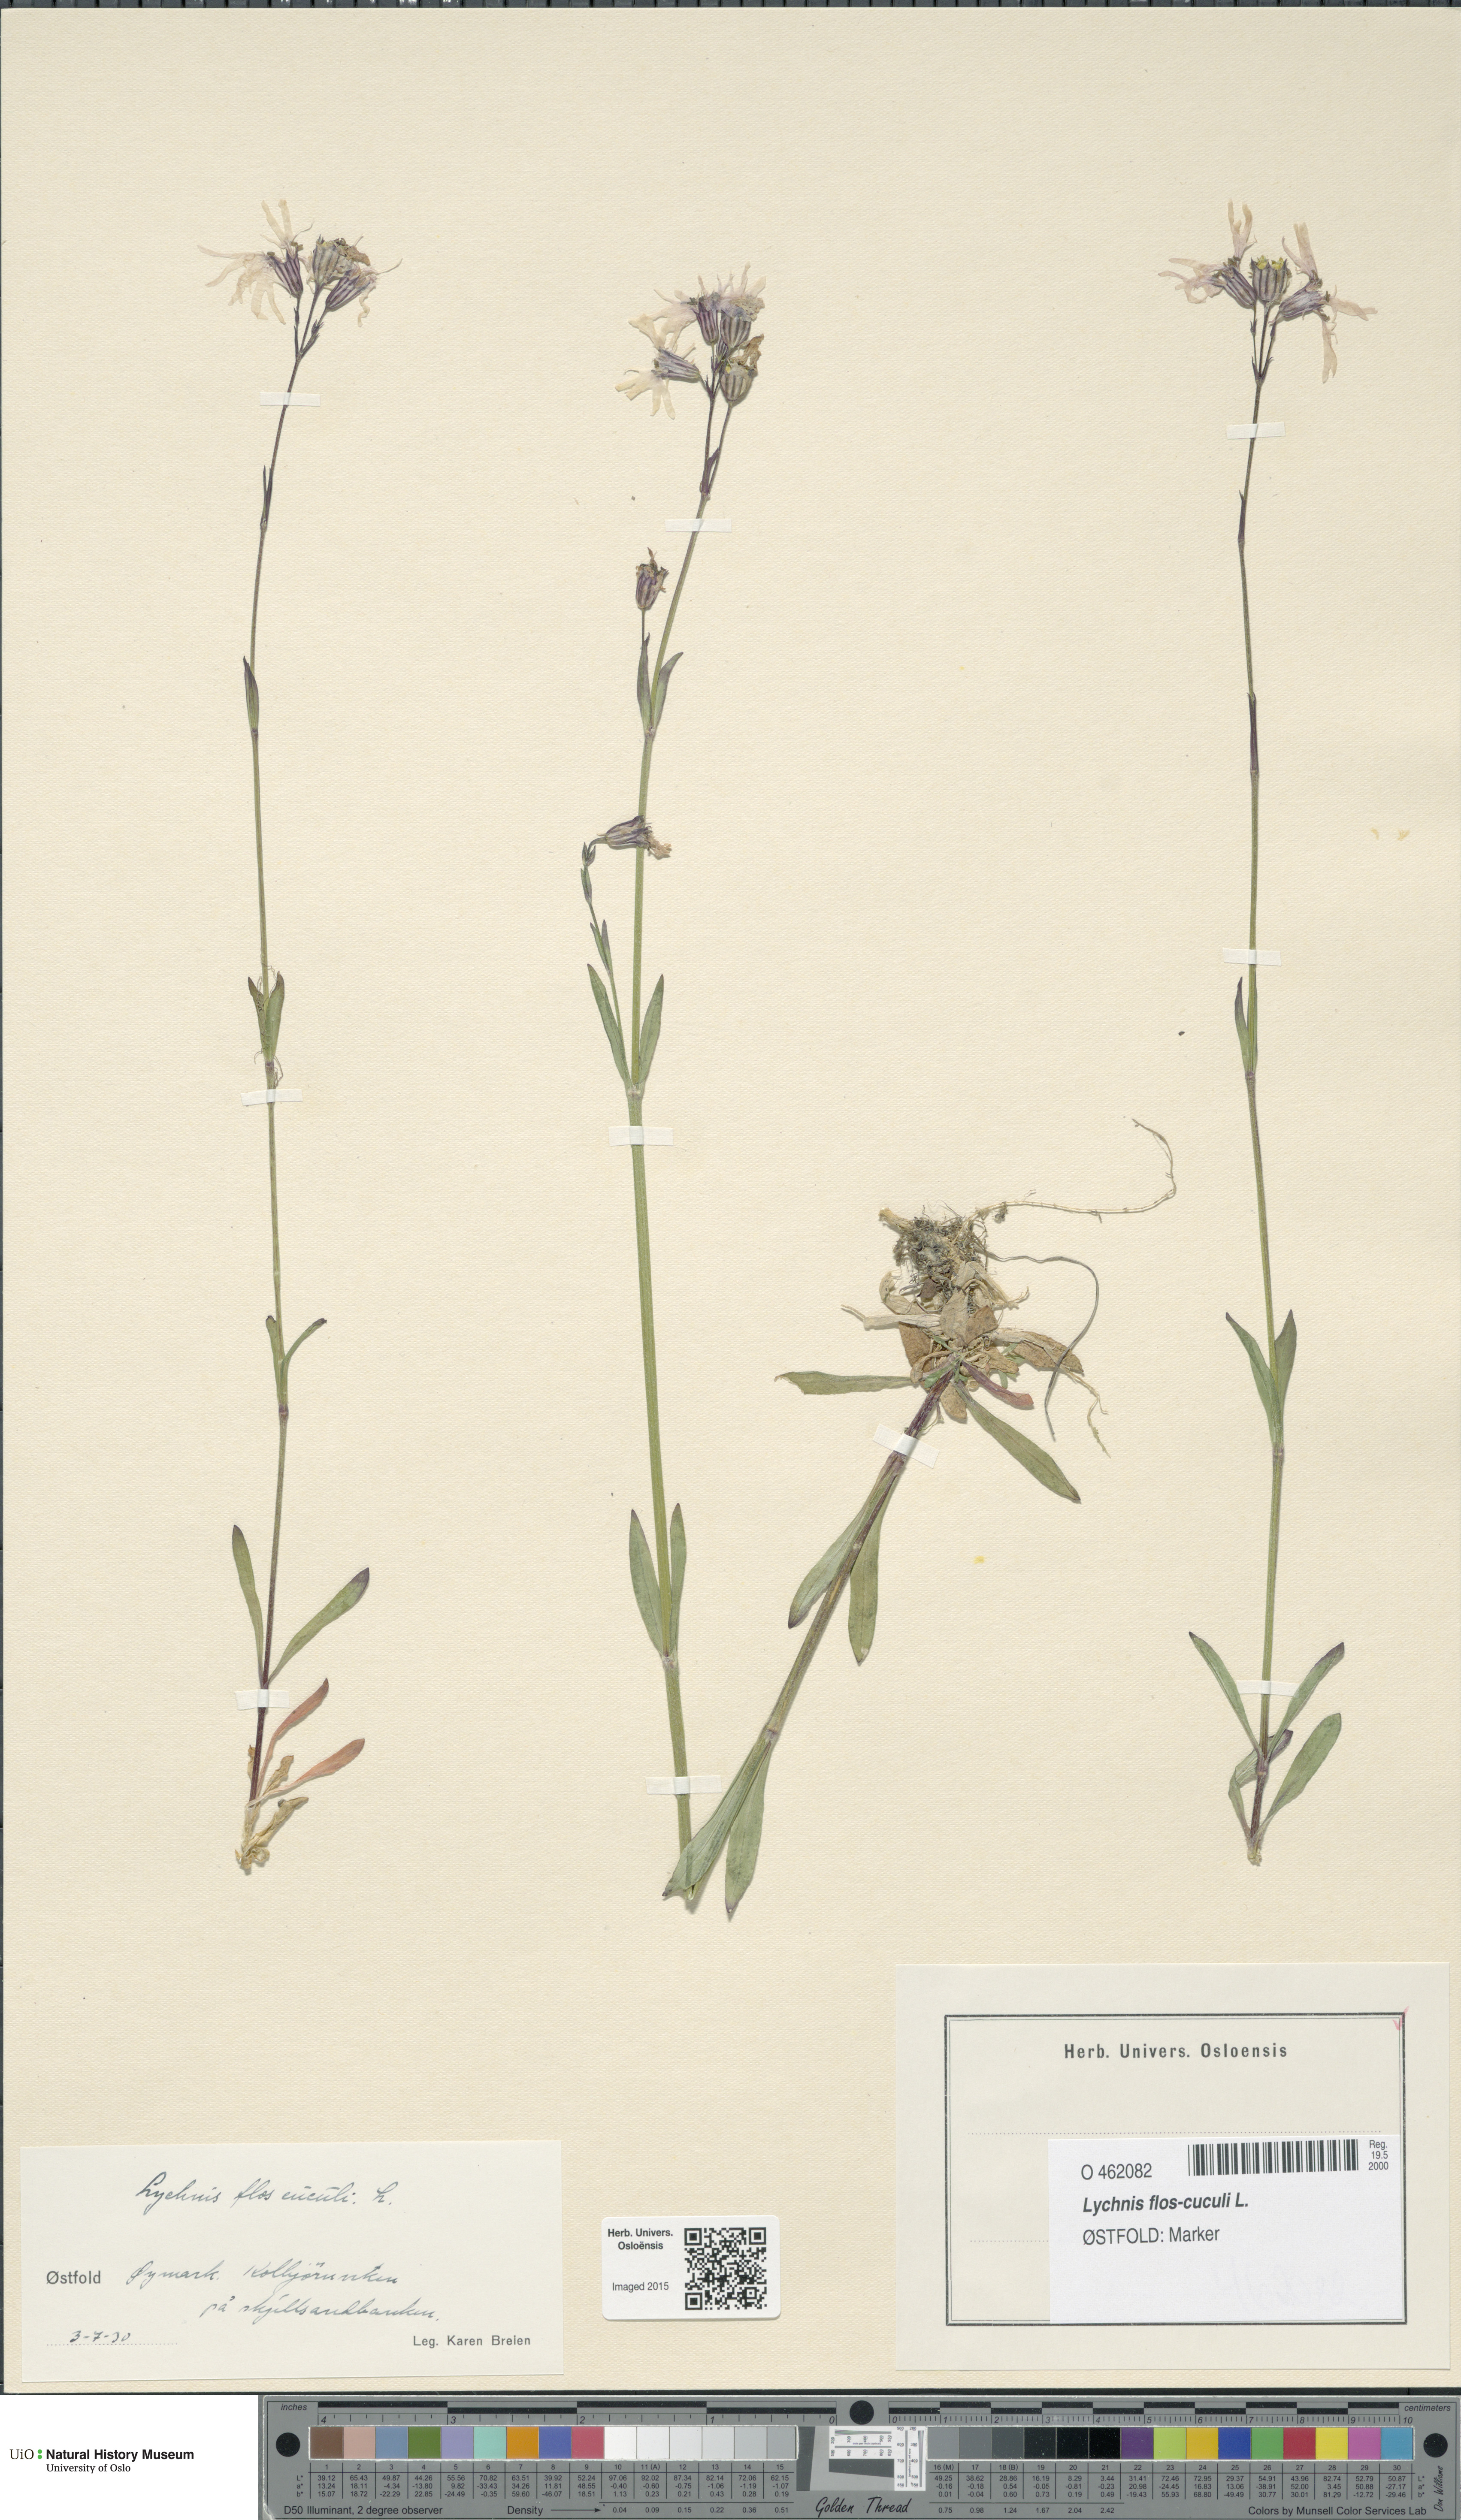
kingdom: Plantae
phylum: Tracheophyta
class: Magnoliopsida
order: Caryophyllales
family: Caryophyllaceae
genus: Silene
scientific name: Silene flos-cuculi
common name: Ragged-robin
